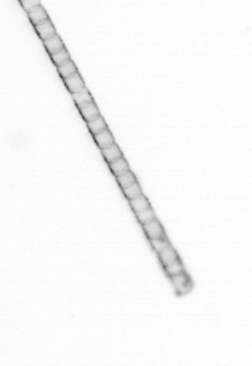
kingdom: Chromista
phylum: Ochrophyta
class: Bacillariophyceae
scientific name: Bacillariophyceae
